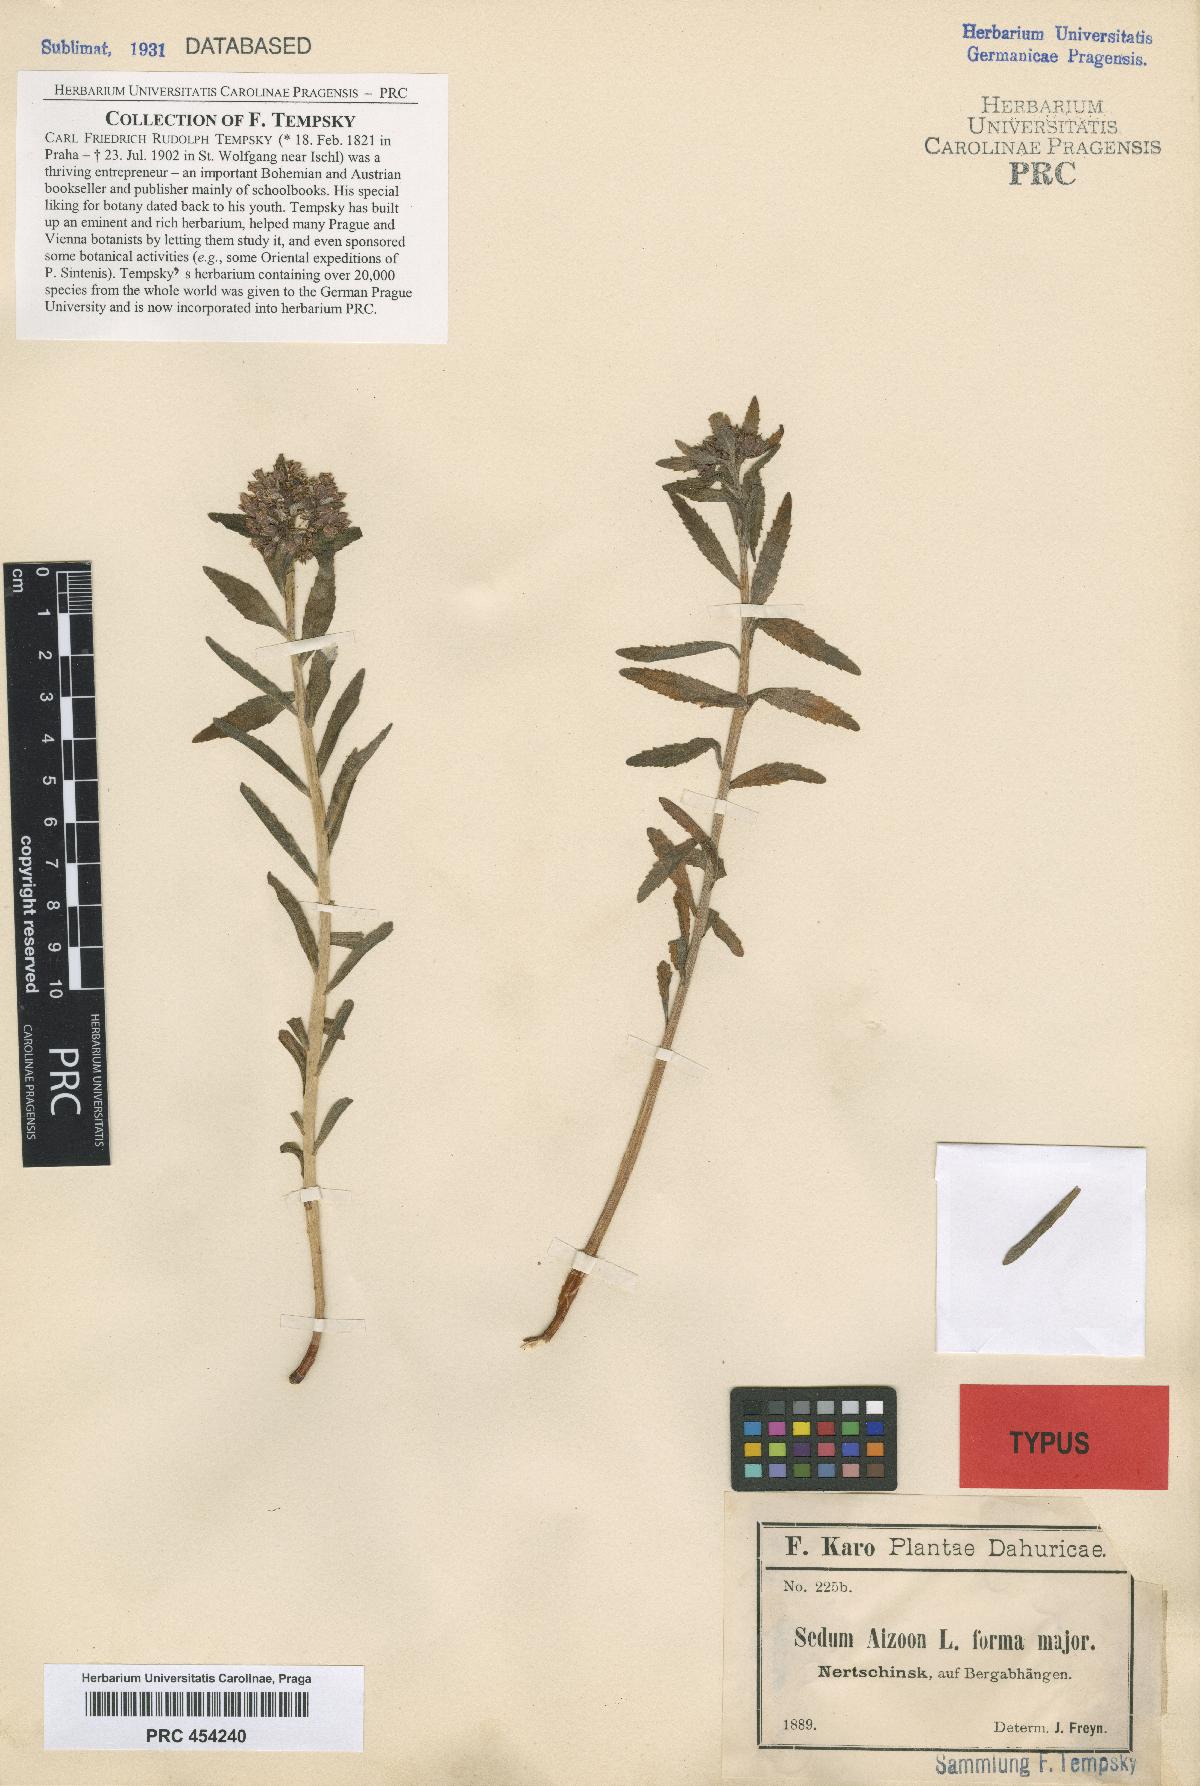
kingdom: Plantae
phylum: Tracheophyta
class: Magnoliopsida
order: Saxifragales
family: Crassulaceae
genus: Sedum
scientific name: Sedum aizoon
